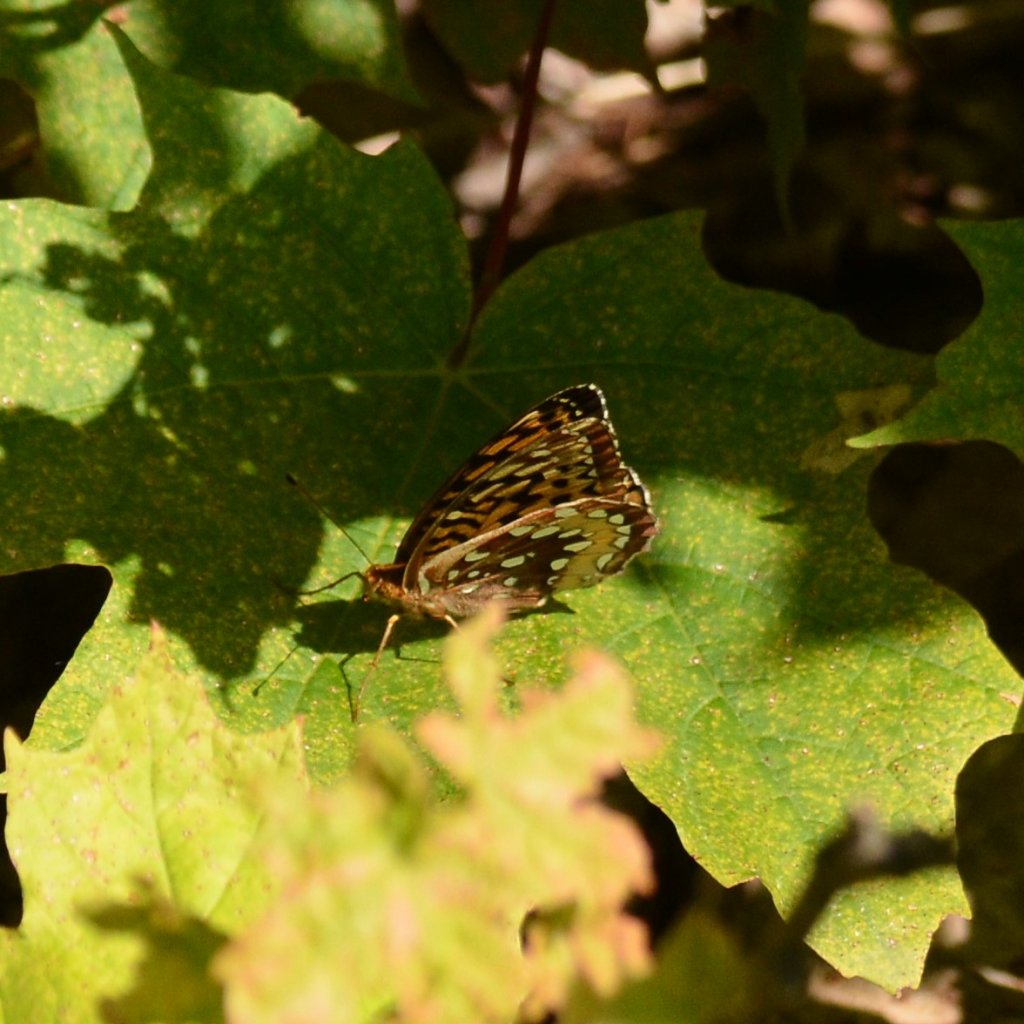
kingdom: Animalia
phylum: Arthropoda
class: Insecta
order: Lepidoptera
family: Nymphalidae
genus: Speyeria
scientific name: Speyeria cybele
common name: Great Spangled Fritillary
